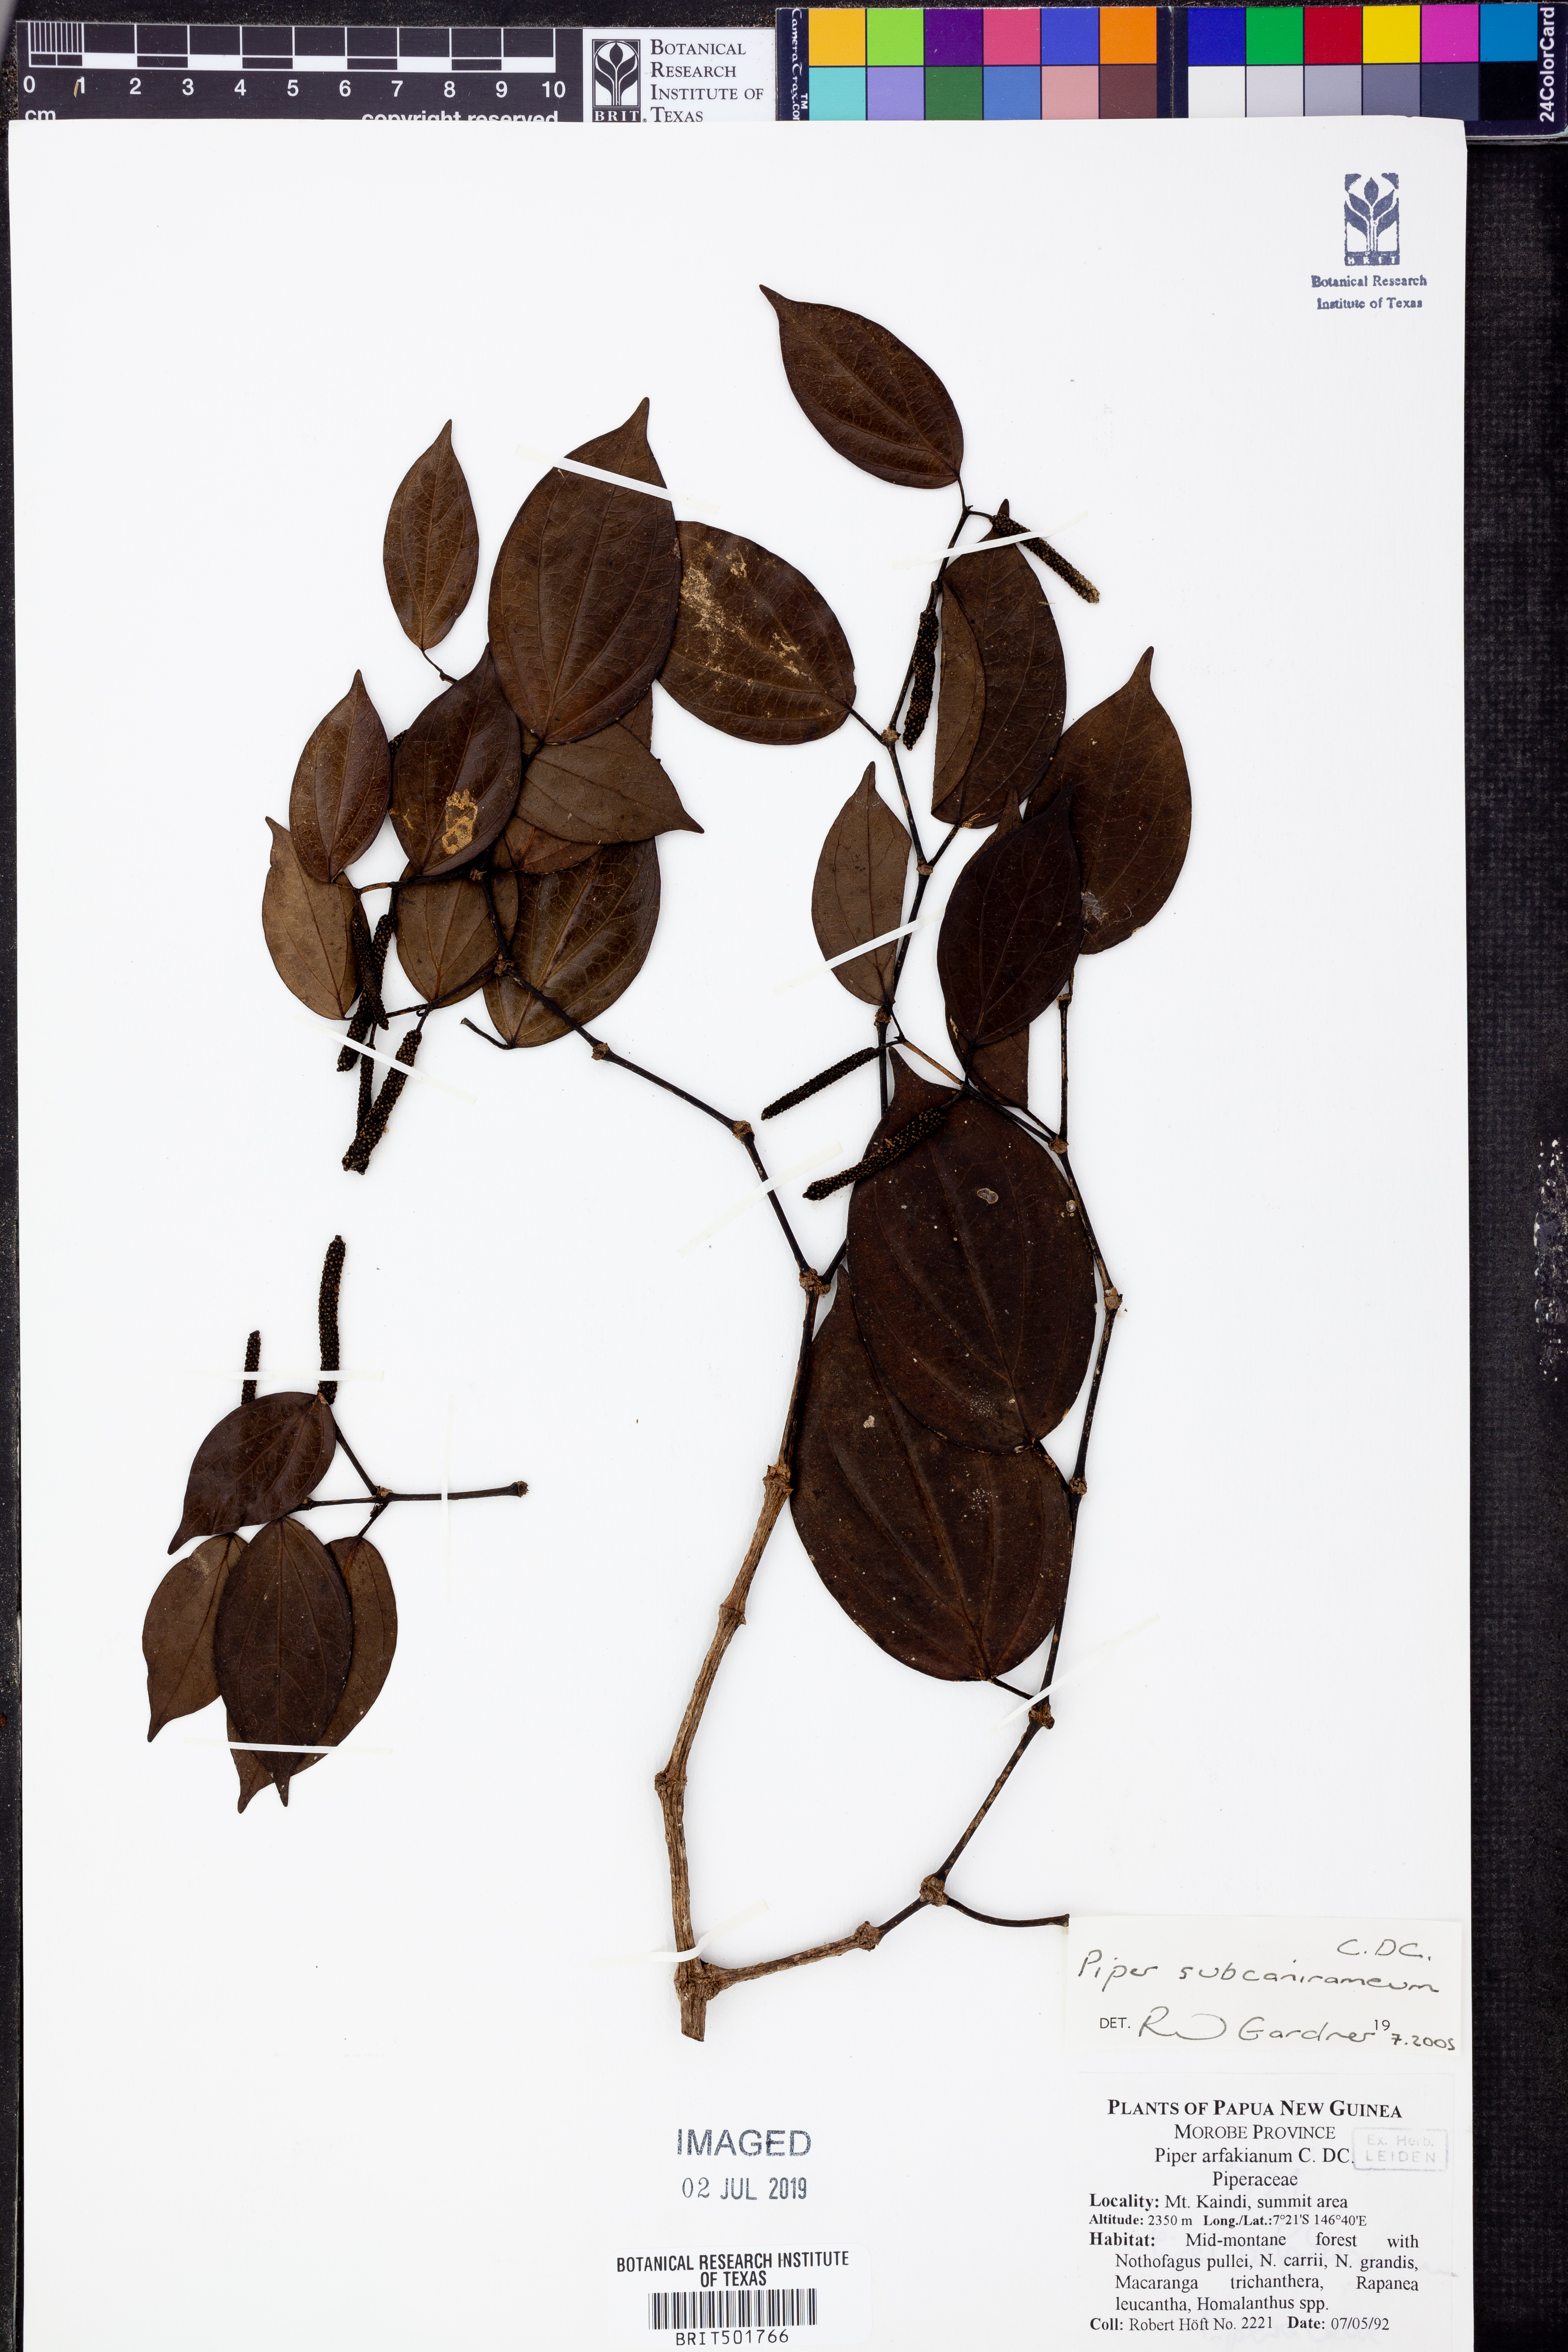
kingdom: Plantae
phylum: Tracheophyta
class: Magnoliopsida
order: Piperales
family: Piperaceae
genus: Piper
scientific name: Piper subcaniramum
